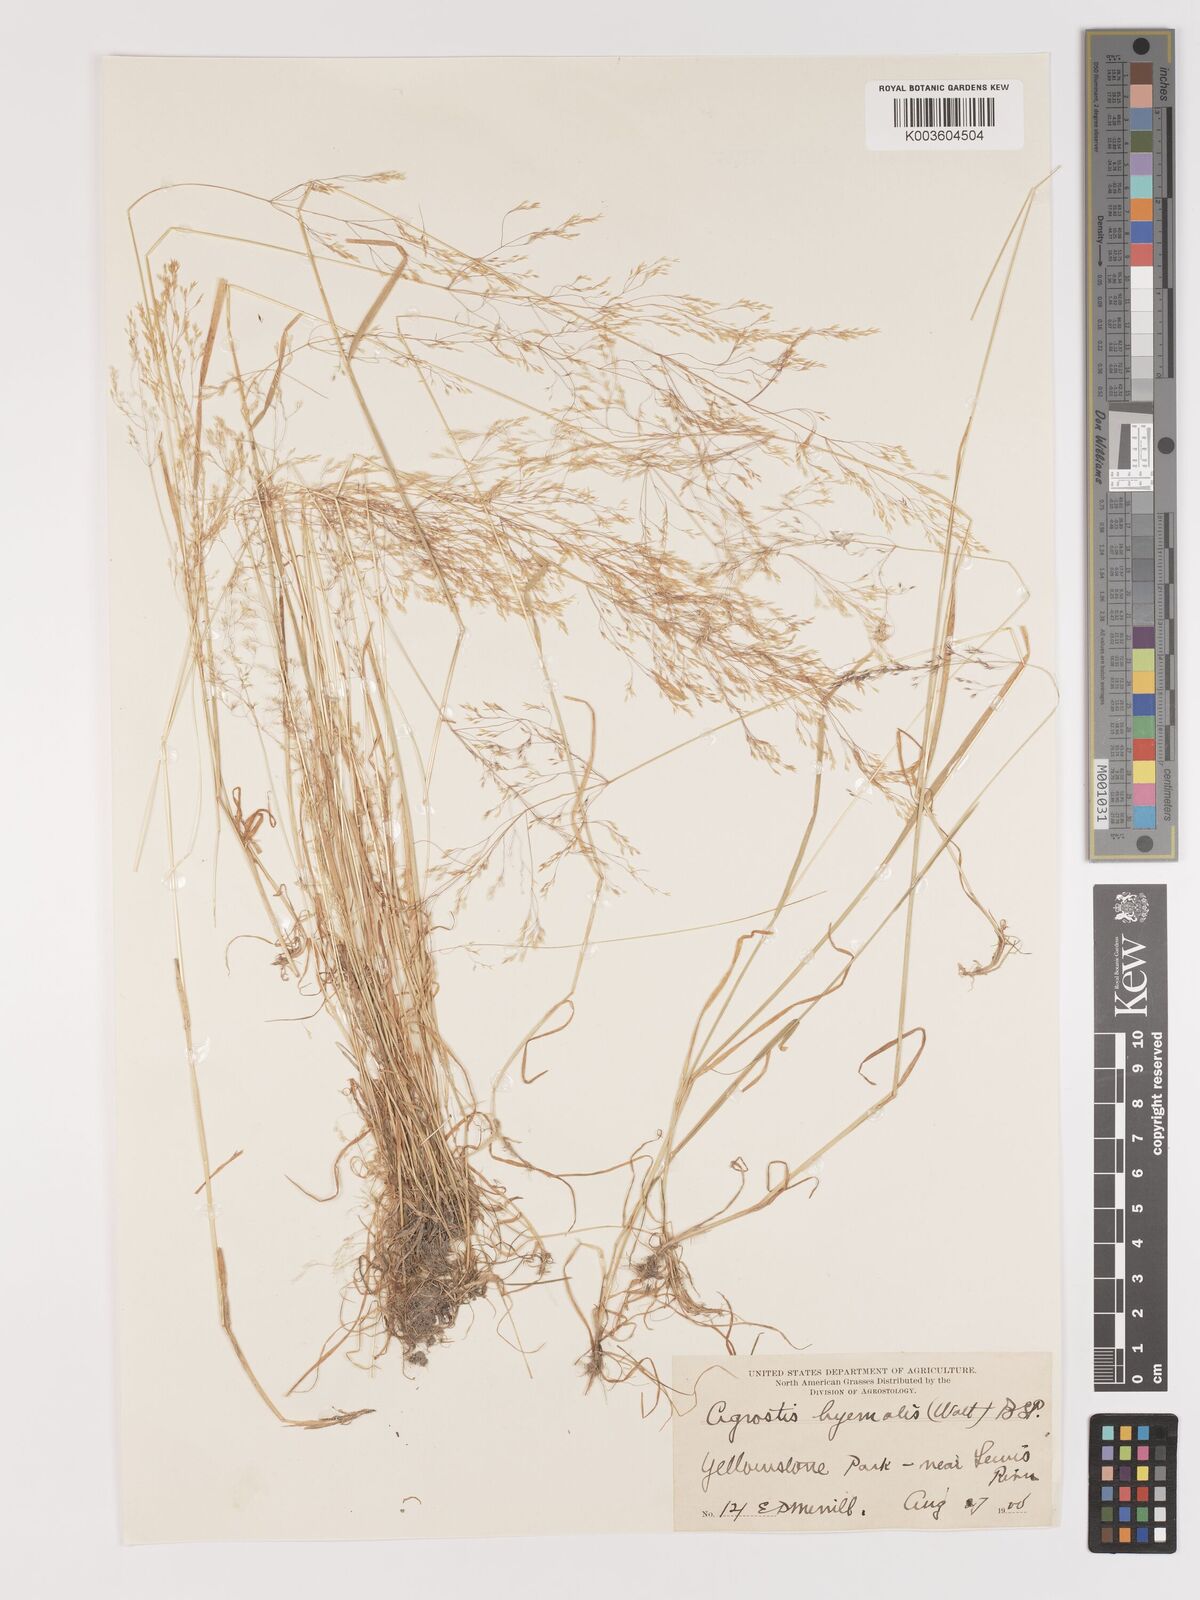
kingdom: Plantae
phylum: Tracheophyta
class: Liliopsida
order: Poales
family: Poaceae
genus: Agrostis
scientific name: Agrostis hyemalis
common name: Small bent
